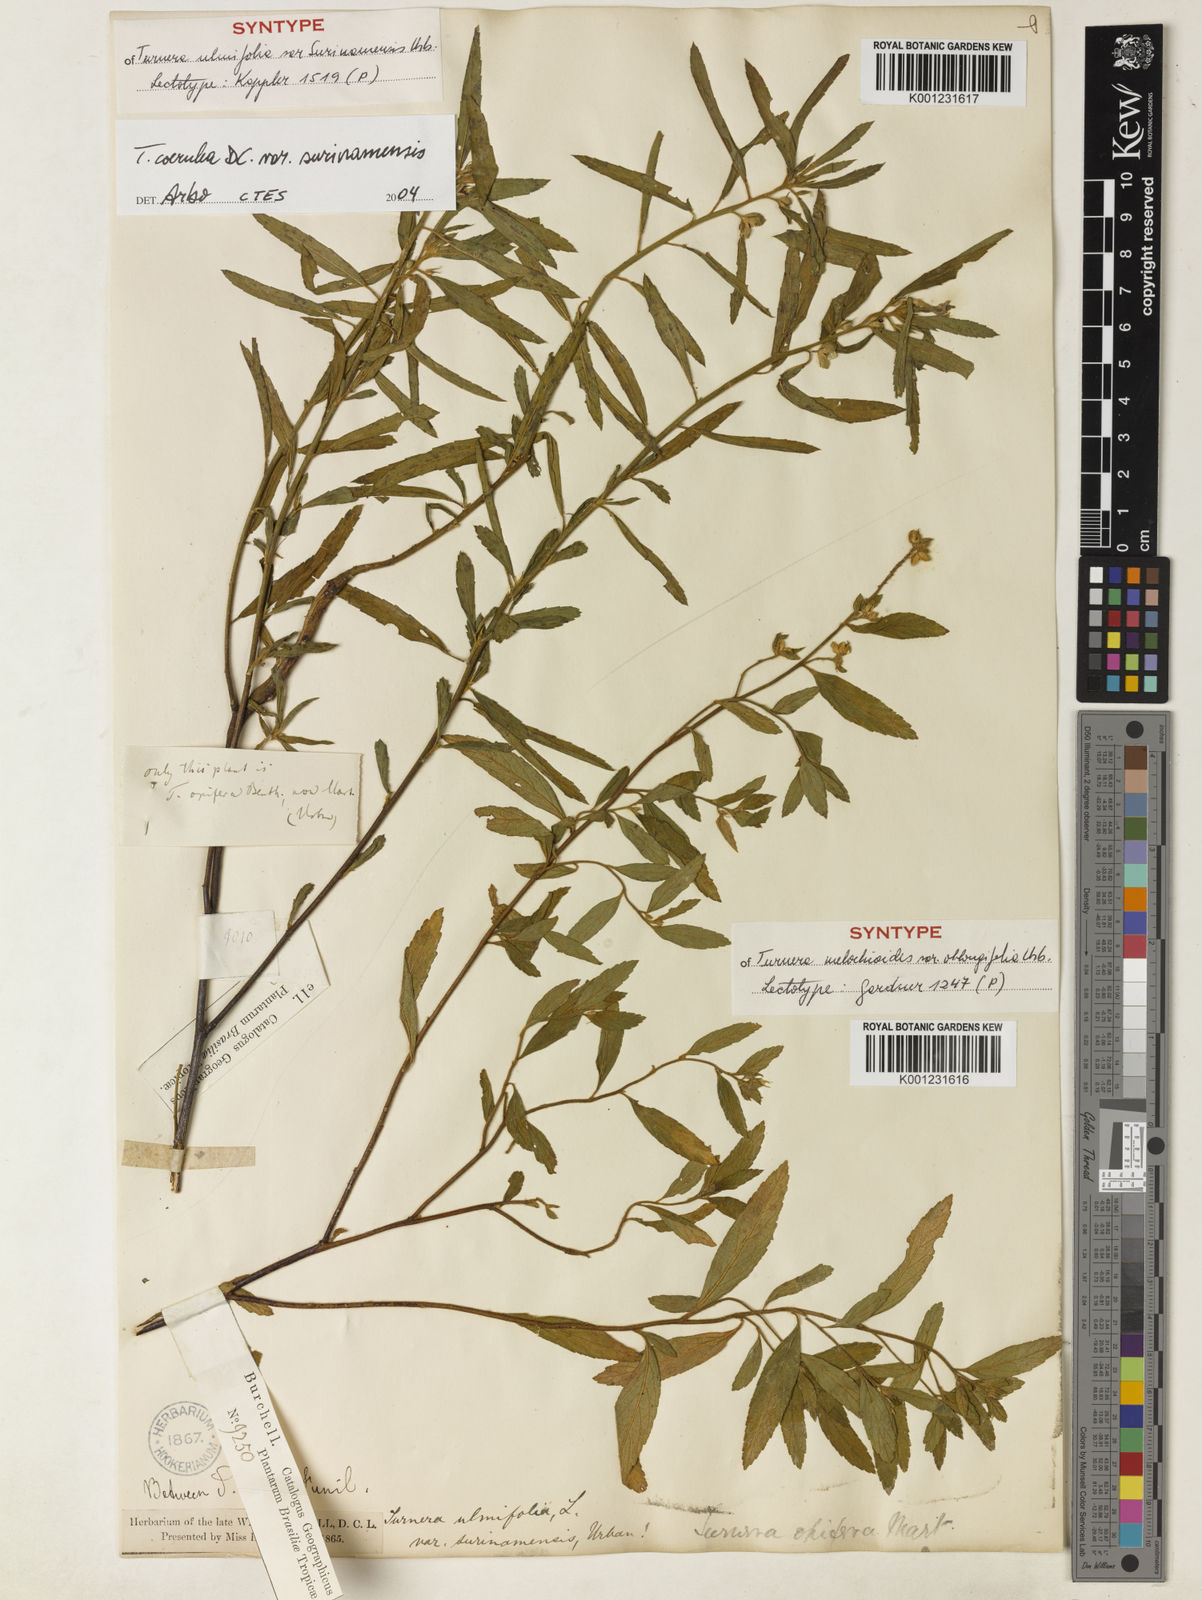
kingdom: Plantae
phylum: Tracheophyta
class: Magnoliopsida
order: Malpighiales
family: Turneraceae
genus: Turnera
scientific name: Turnera coerulea
